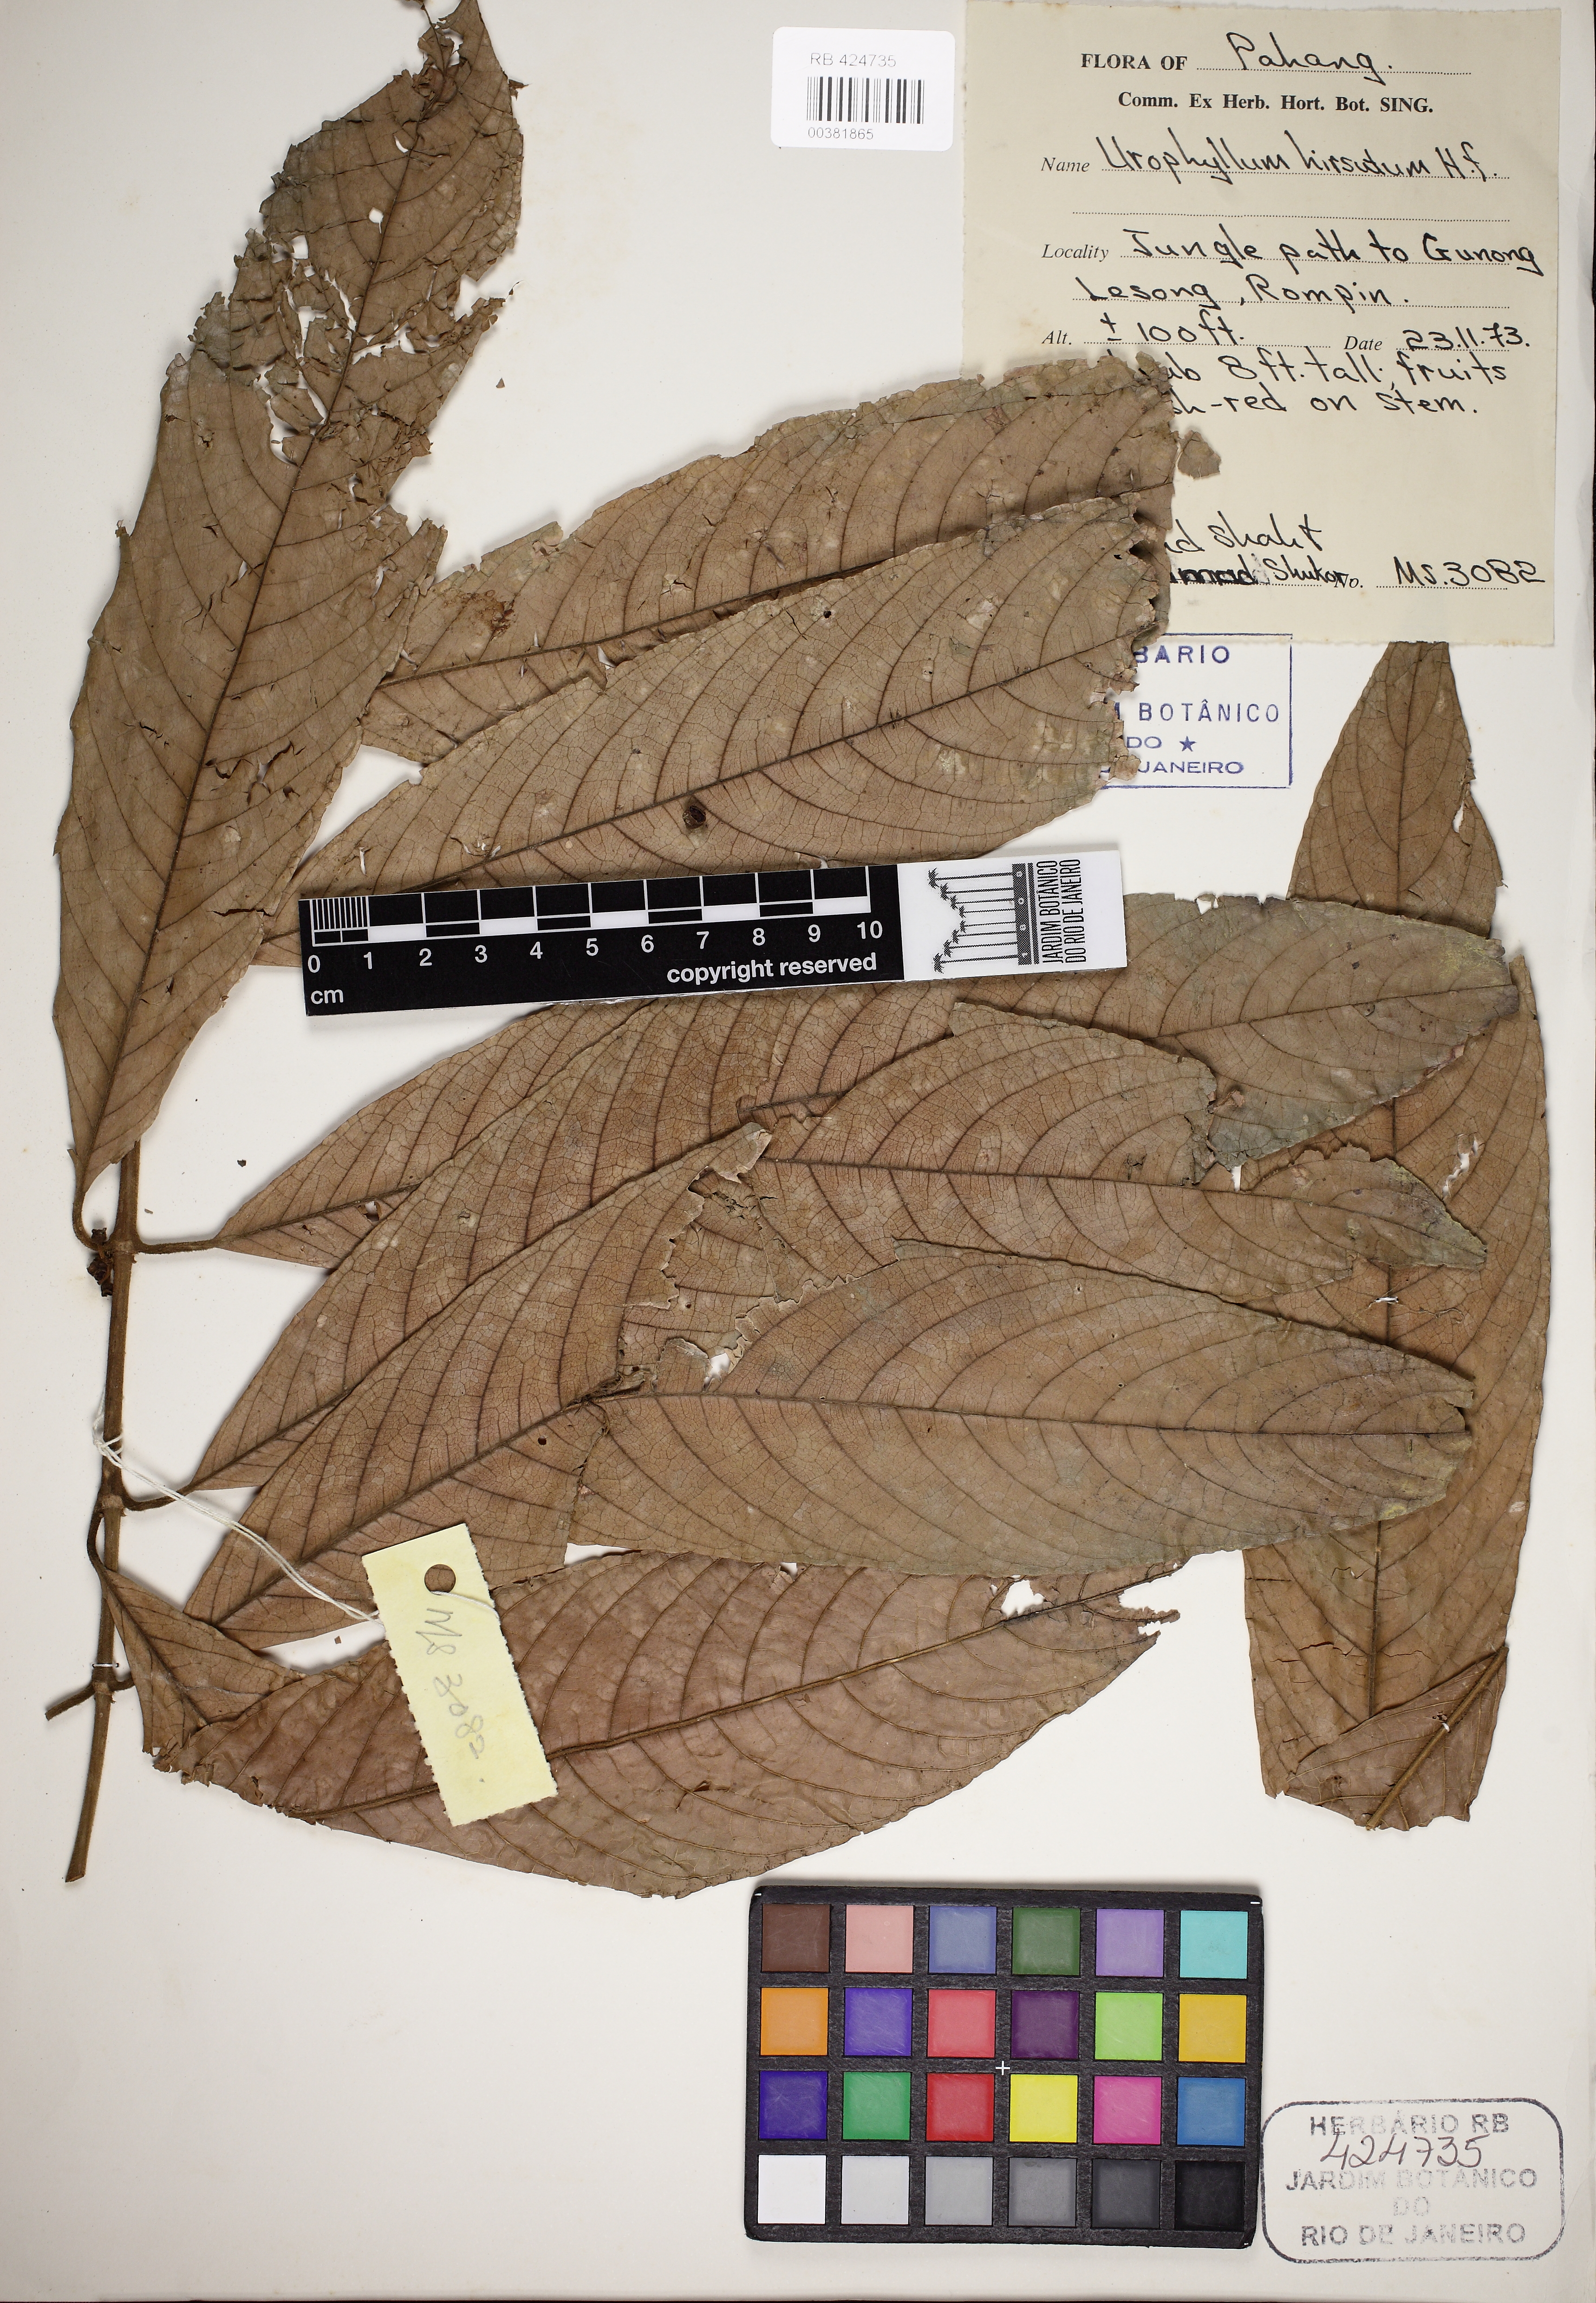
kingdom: Plantae
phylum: Tracheophyta
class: Magnoliopsida
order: Gentianales
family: Rubiaceae
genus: Urophyllum
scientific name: Urophyllum hirsutum
